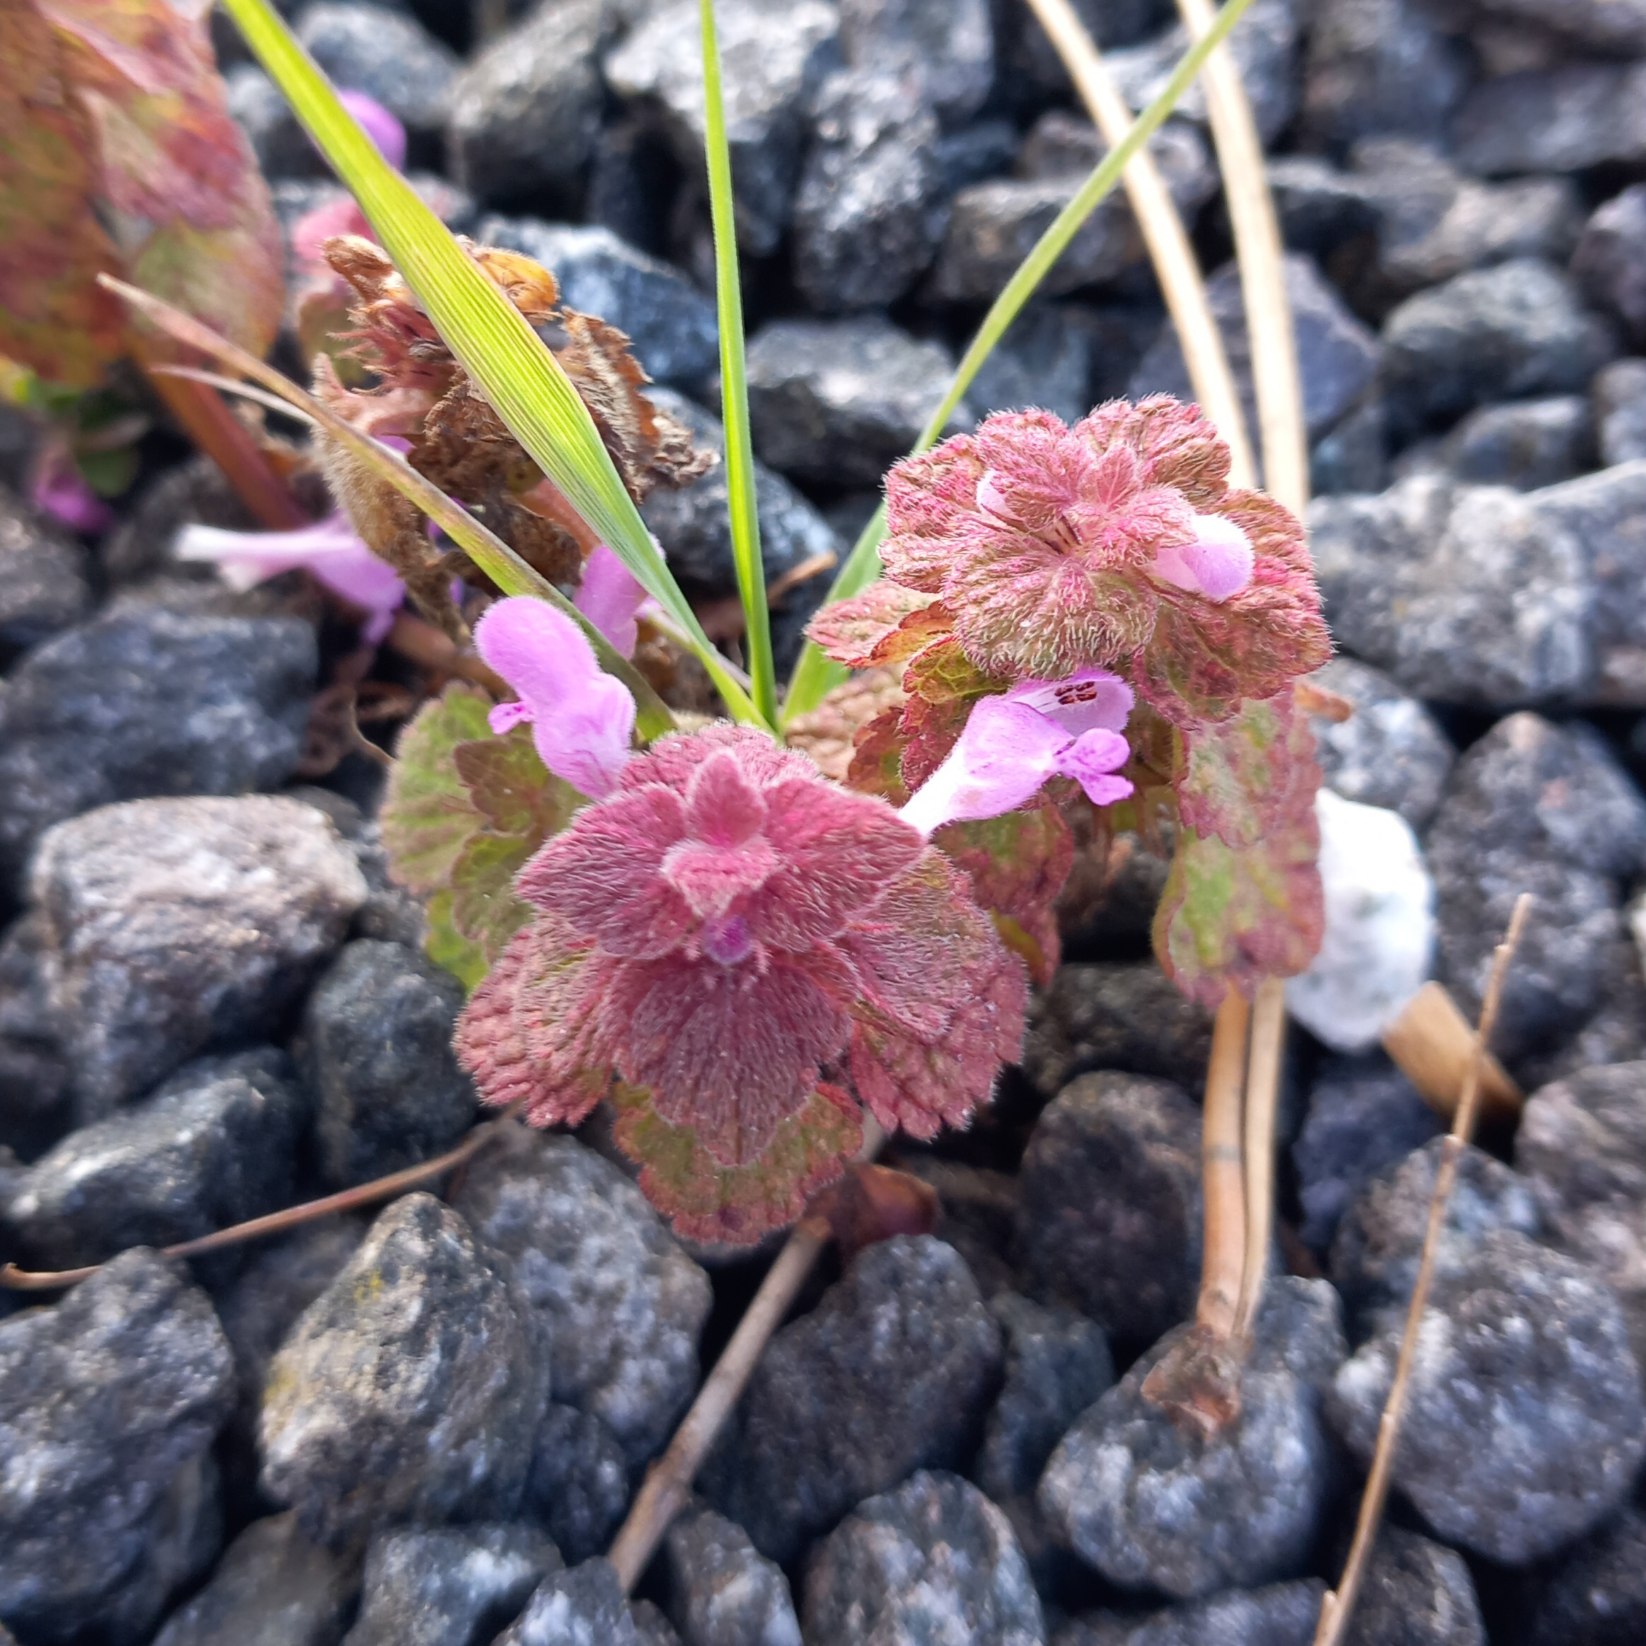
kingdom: Plantae
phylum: Tracheophyta
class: Magnoliopsida
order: Lamiales
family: Lamiaceae
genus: Lamium
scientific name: Lamium purpureum
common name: Rød tvetand
